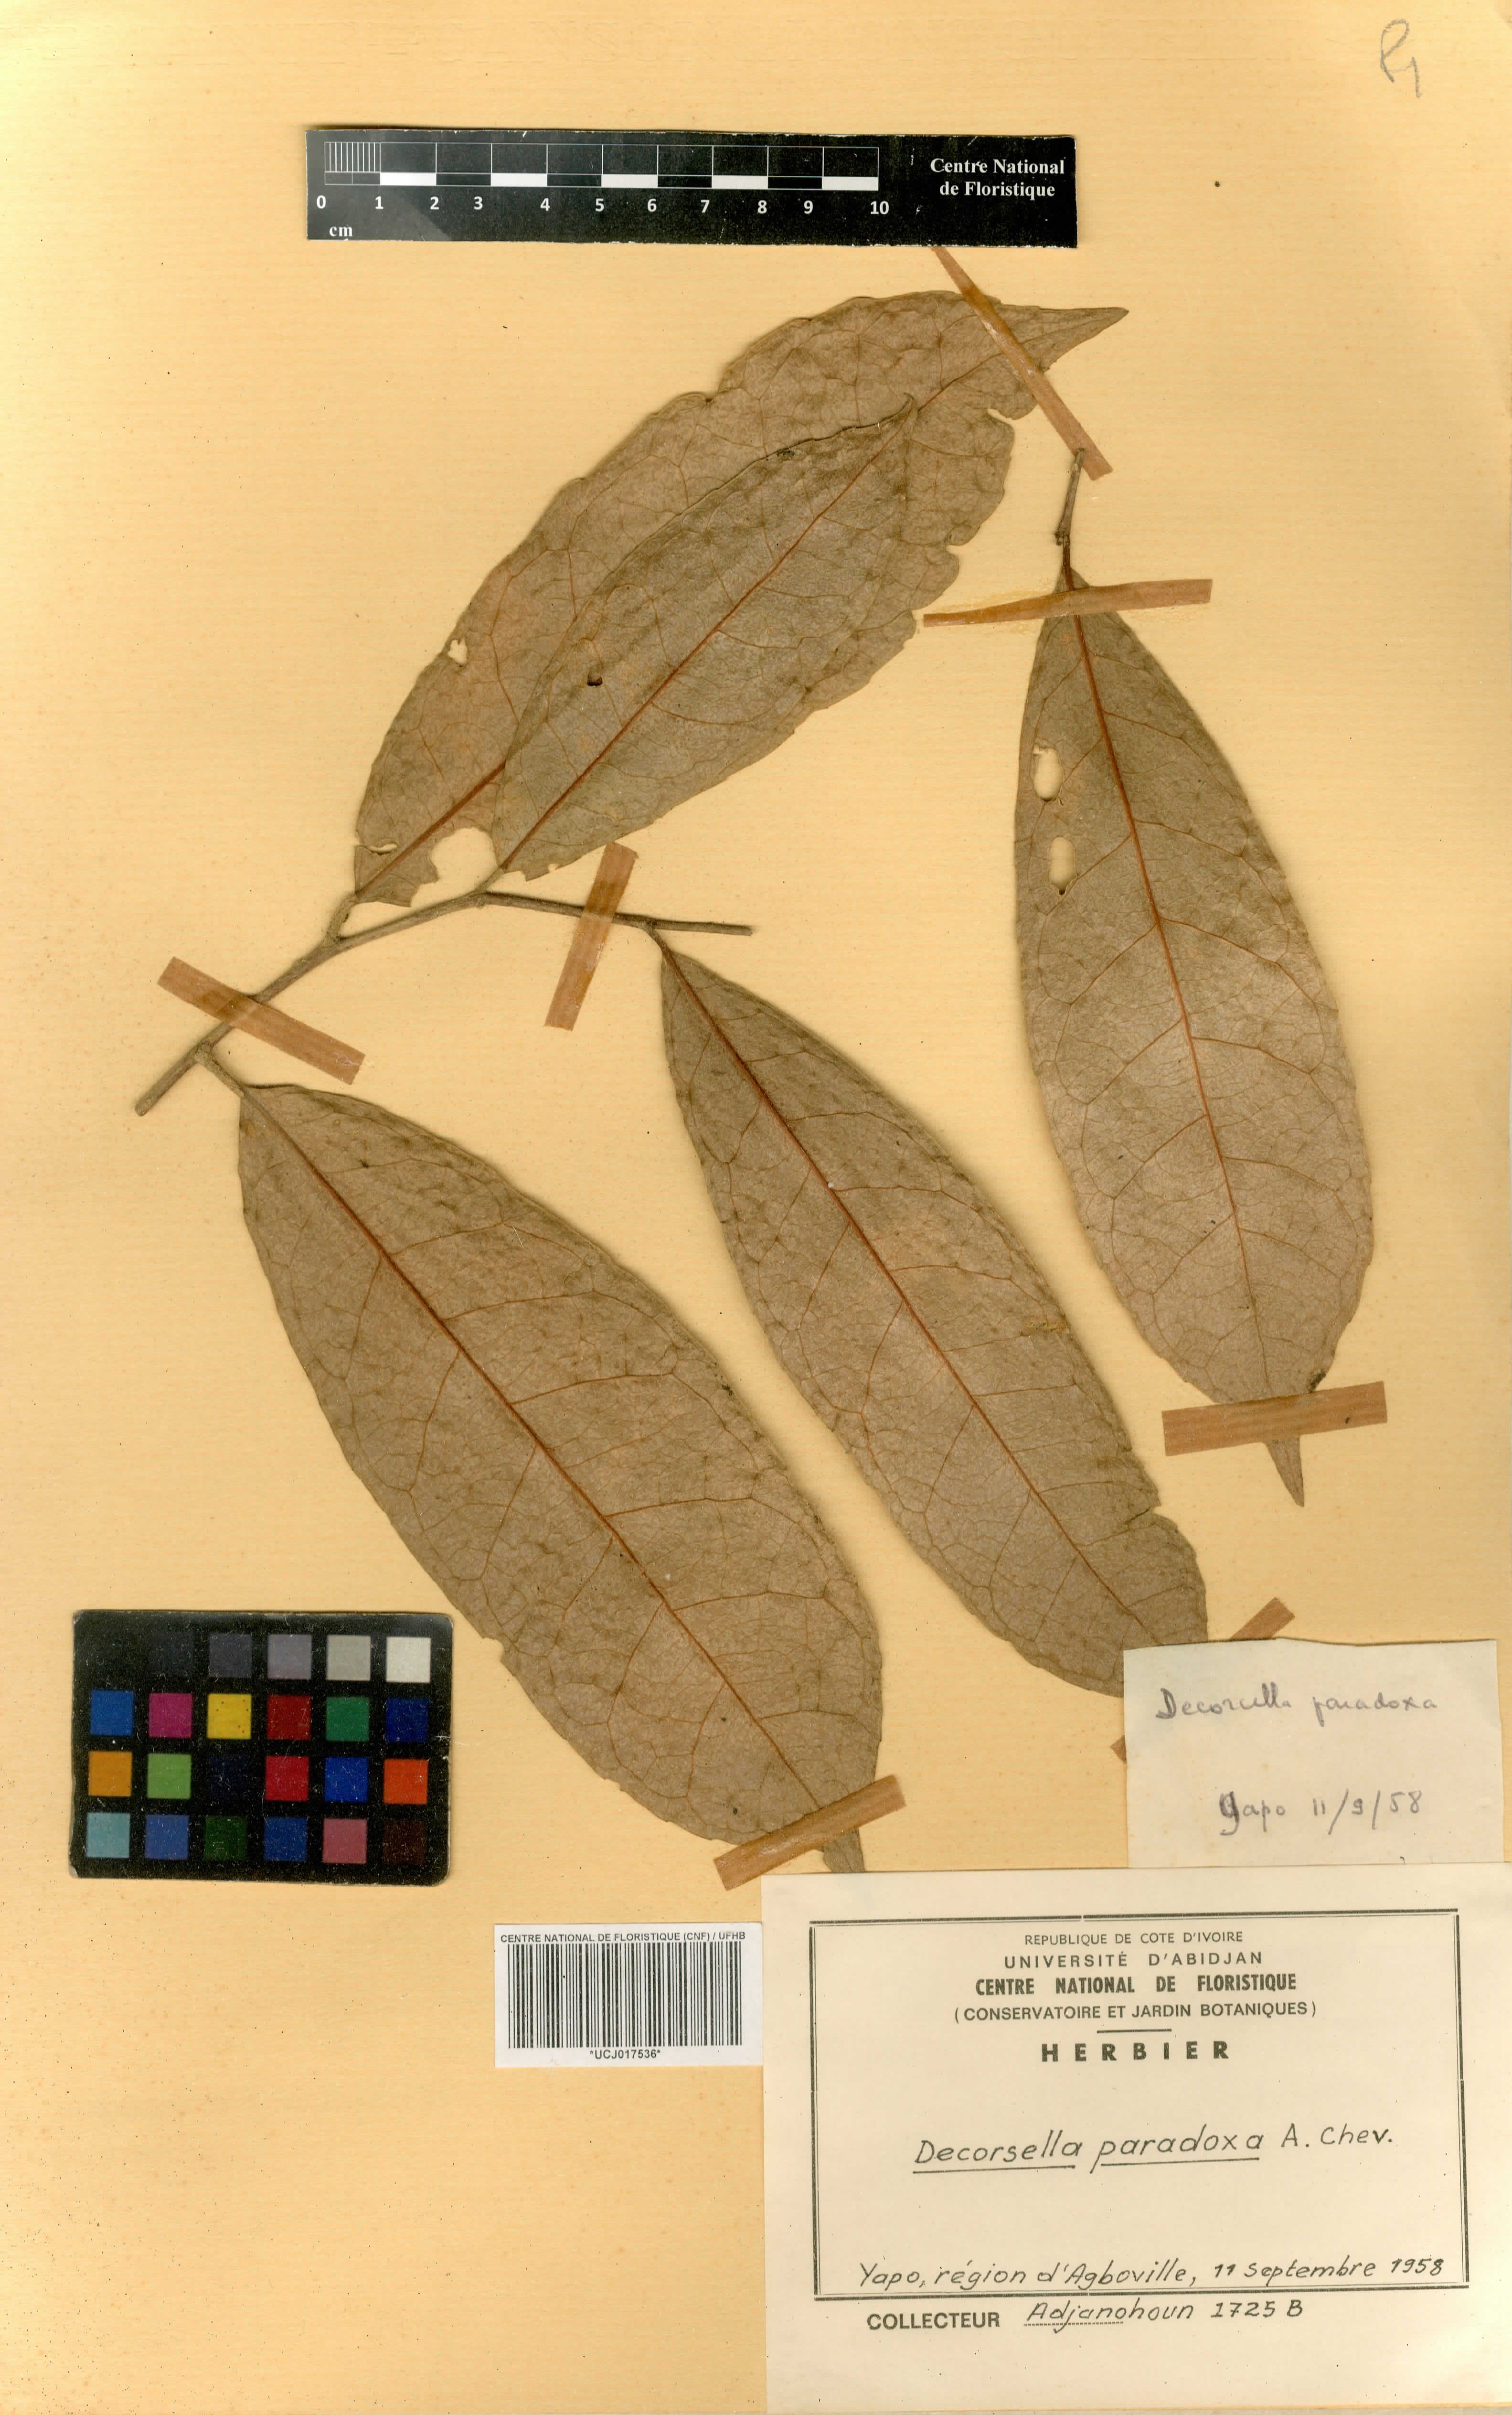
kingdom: Plantae
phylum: Tracheophyta
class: Magnoliopsida
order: Malpighiales
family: Violaceae
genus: Decorsella
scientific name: Decorsella paradoxa
